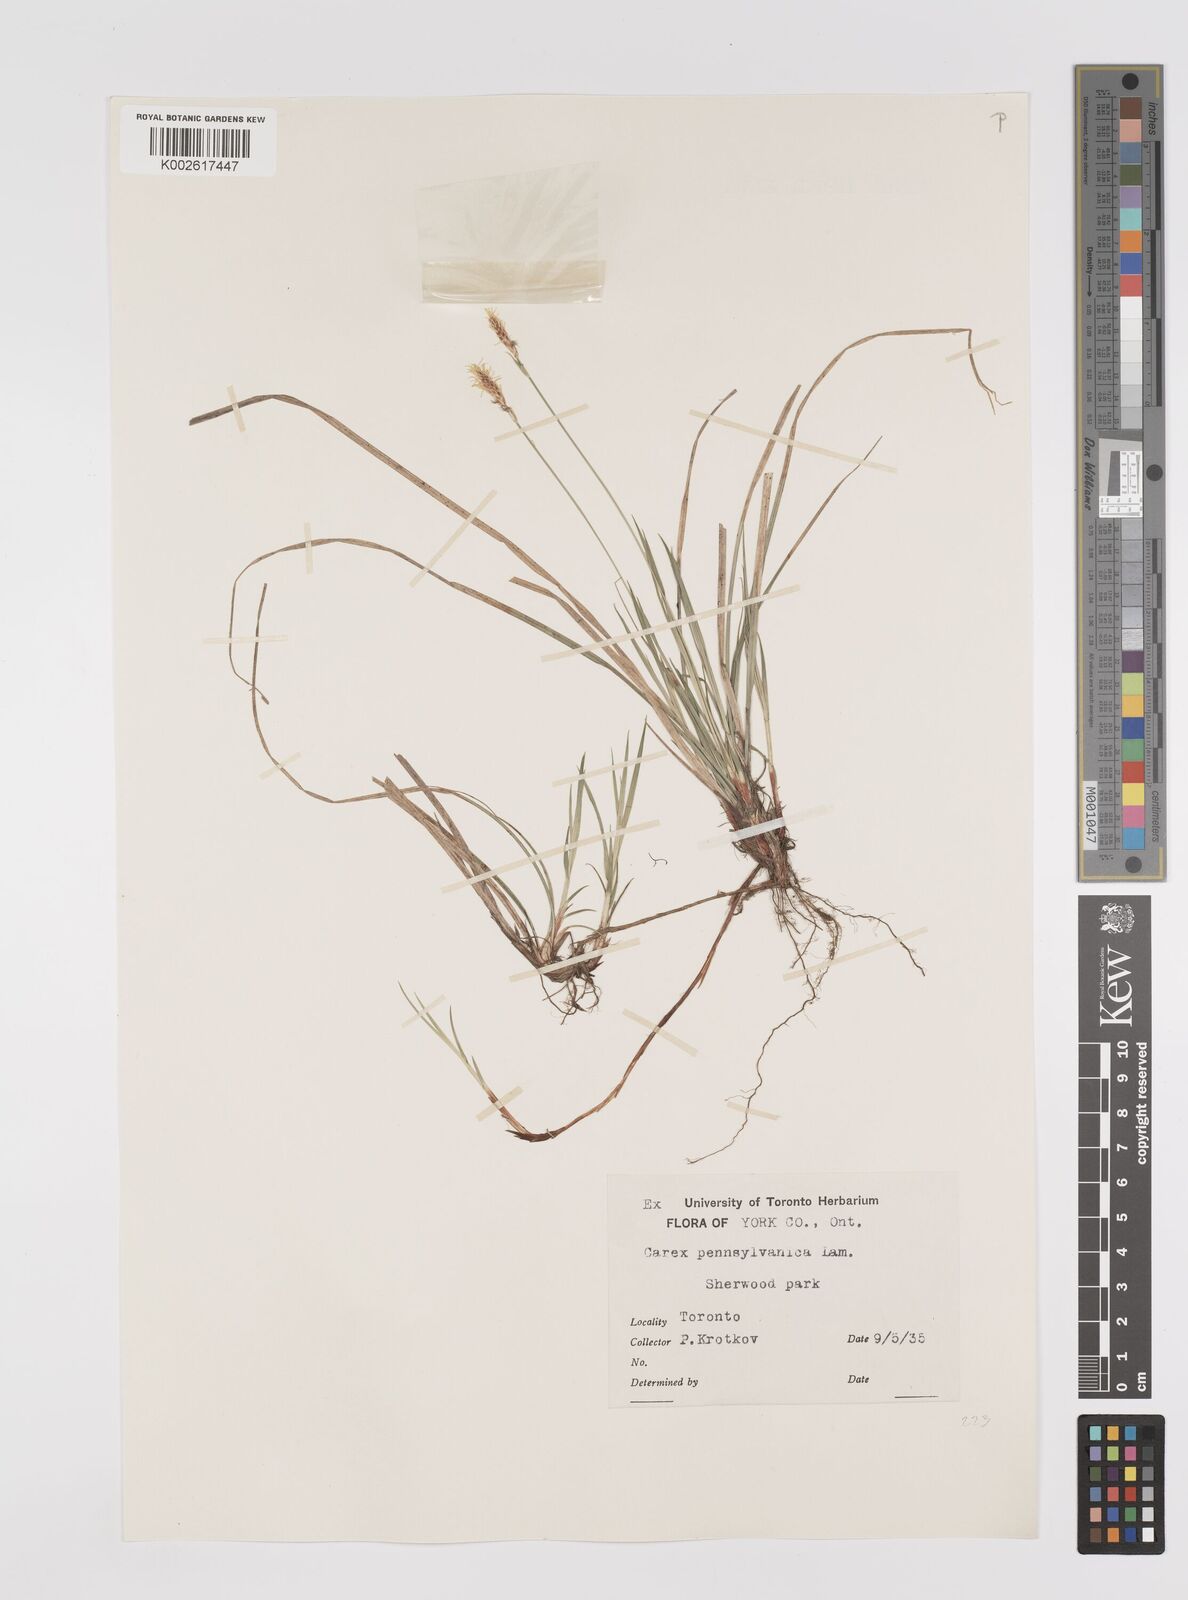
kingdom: Plantae
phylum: Tracheophyta
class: Liliopsida
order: Poales
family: Cyperaceae
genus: Carex
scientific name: Carex pensylvanica
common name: Common oak sedge
